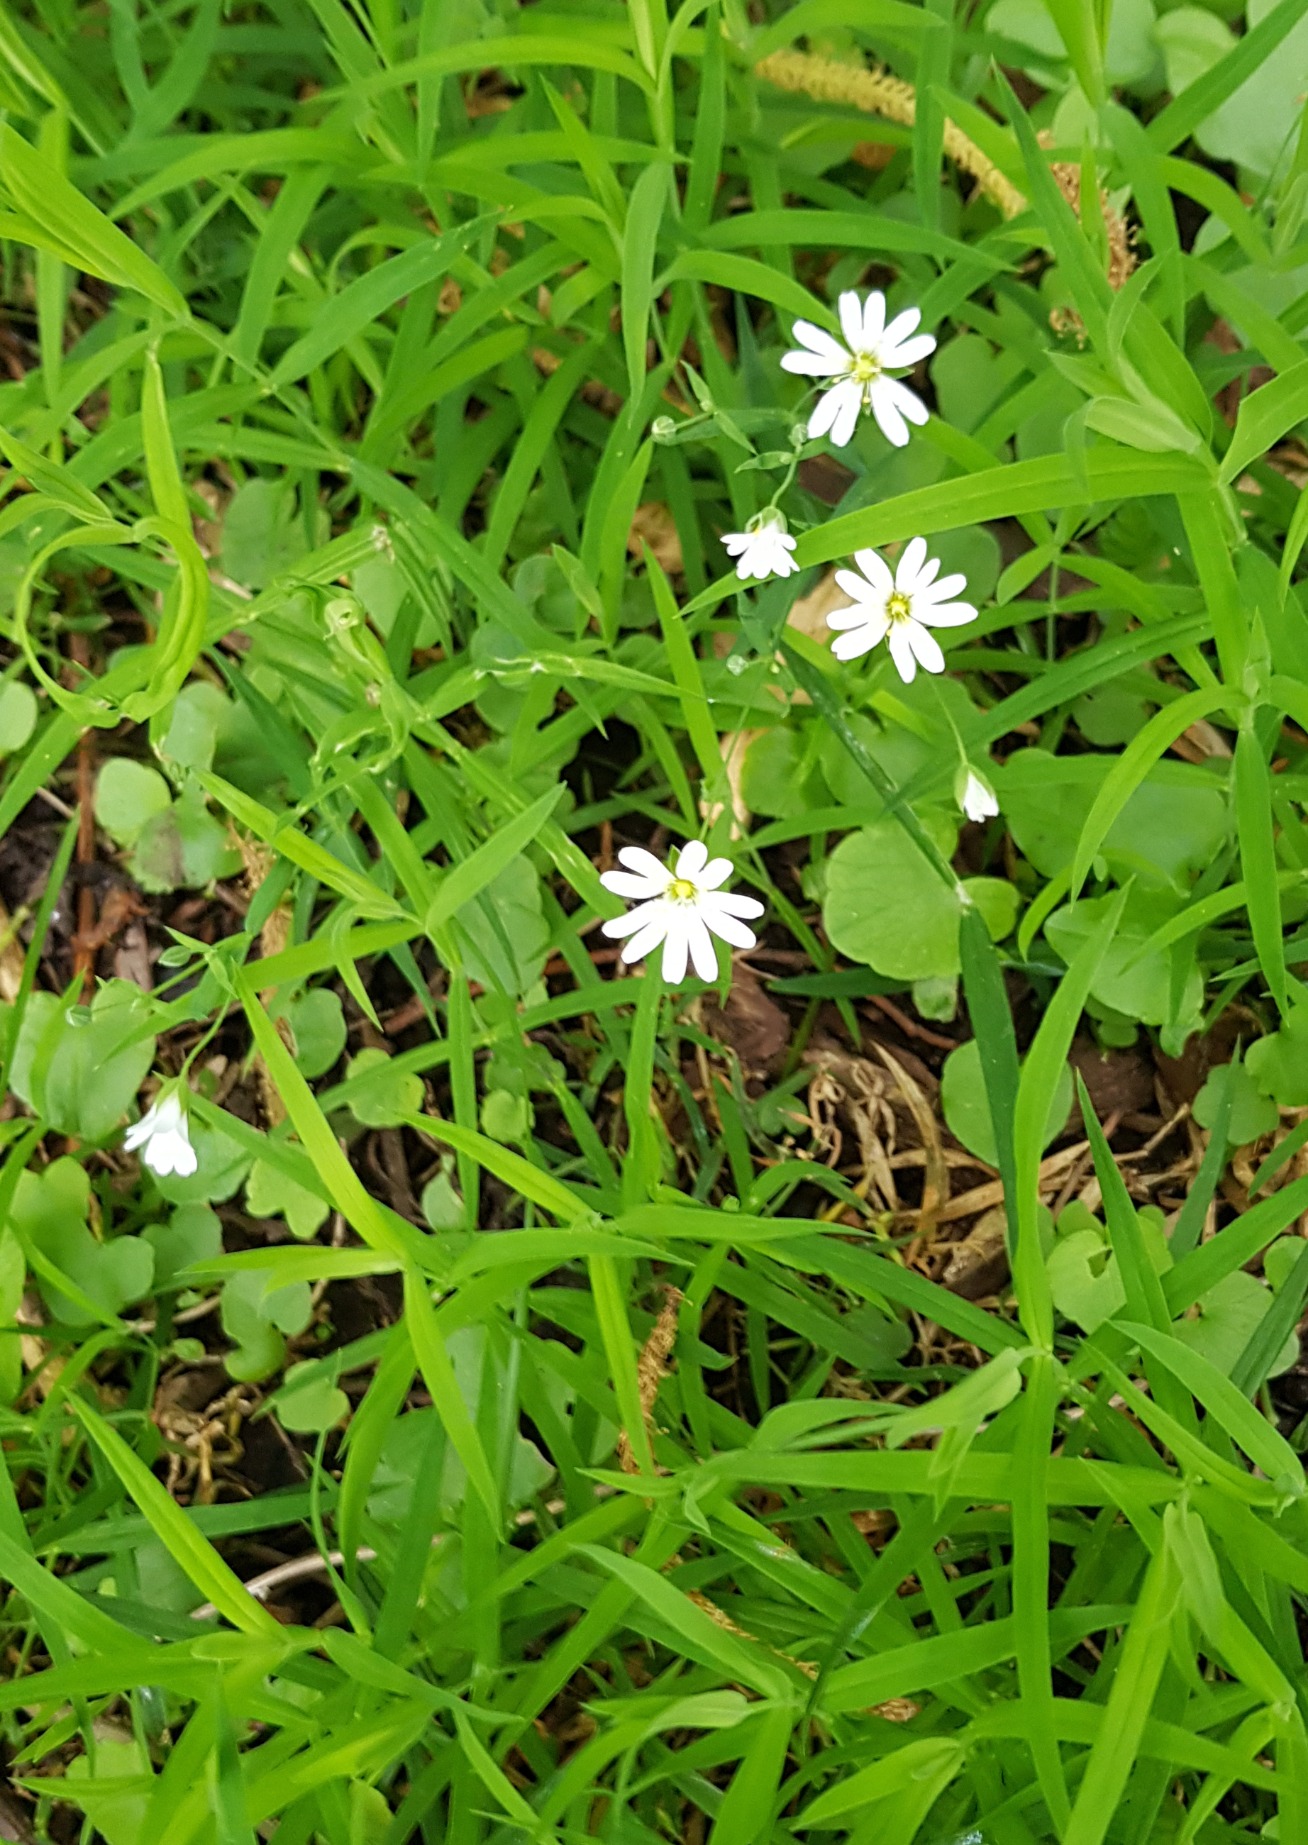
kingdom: Plantae
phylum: Tracheophyta
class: Magnoliopsida
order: Caryophyllales
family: Caryophyllaceae
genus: Rabelera
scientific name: Rabelera holostea
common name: Stor fladstjerne
